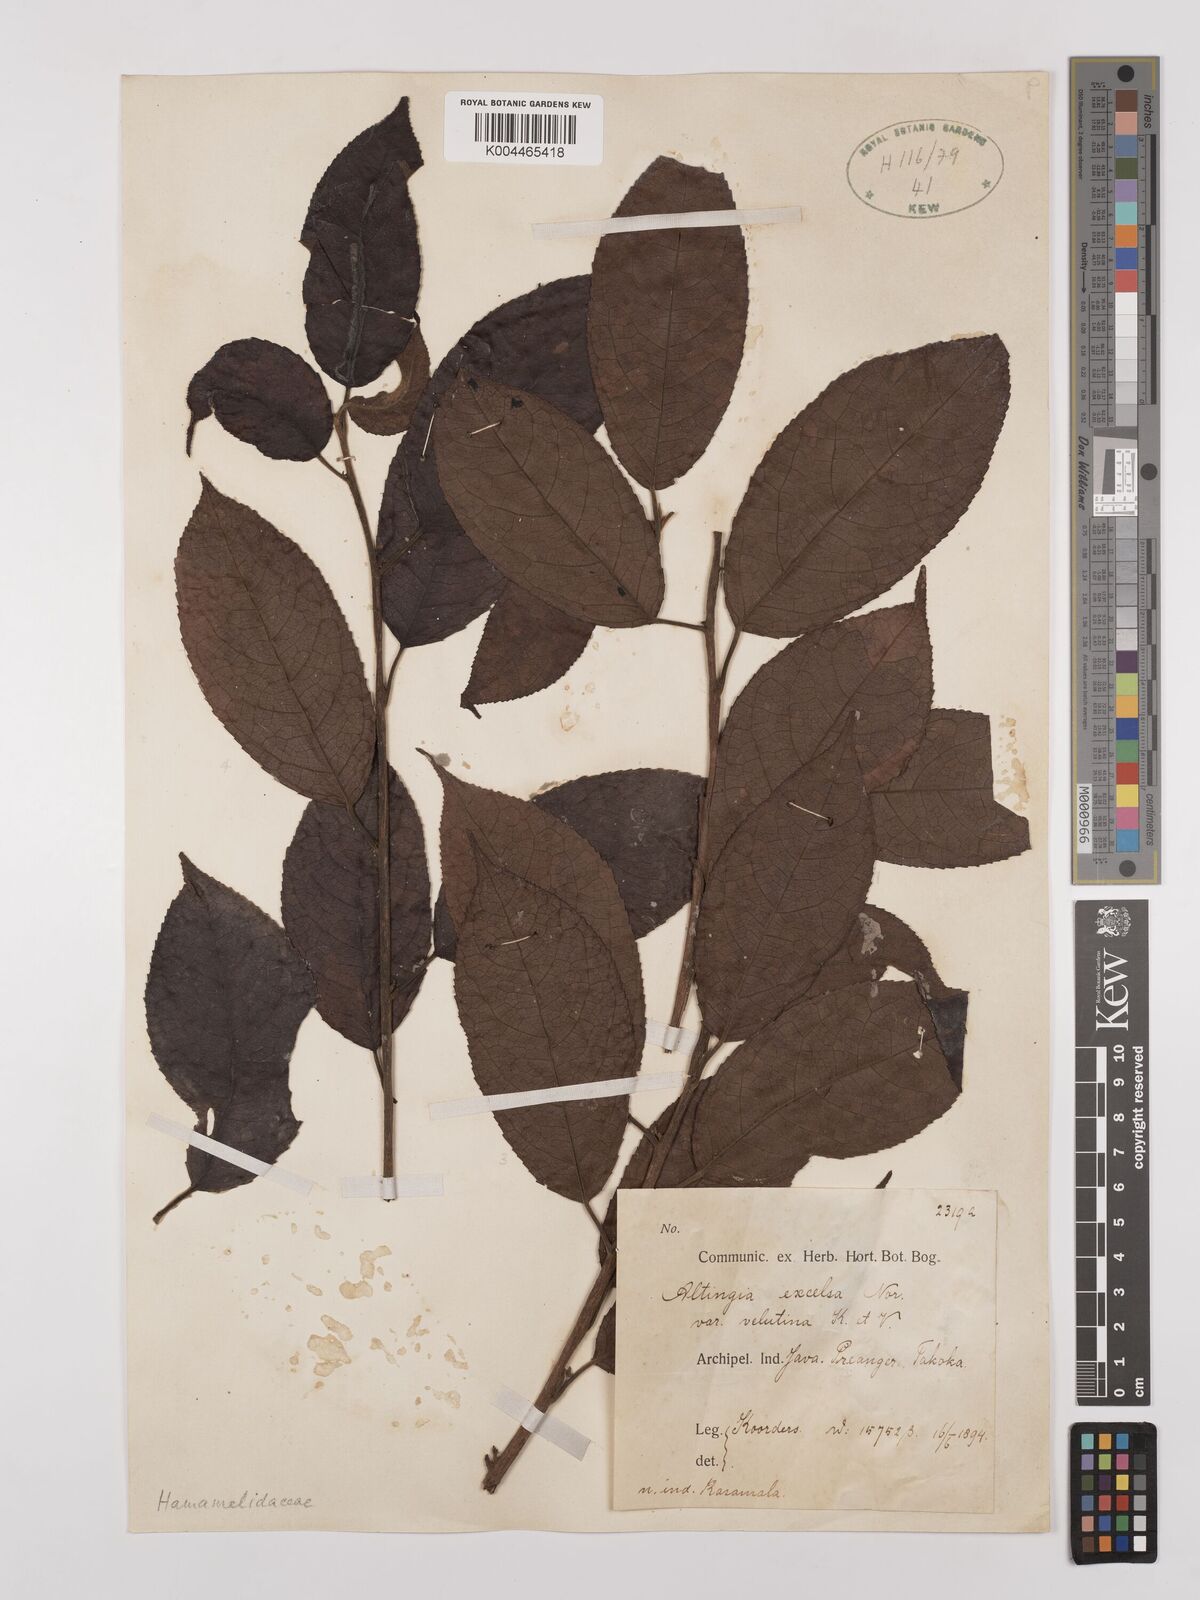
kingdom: Plantae
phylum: Tracheophyta
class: Magnoliopsida
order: Saxifragales
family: Altingiaceae
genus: Liquidambar
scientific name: Liquidambar excelsa
